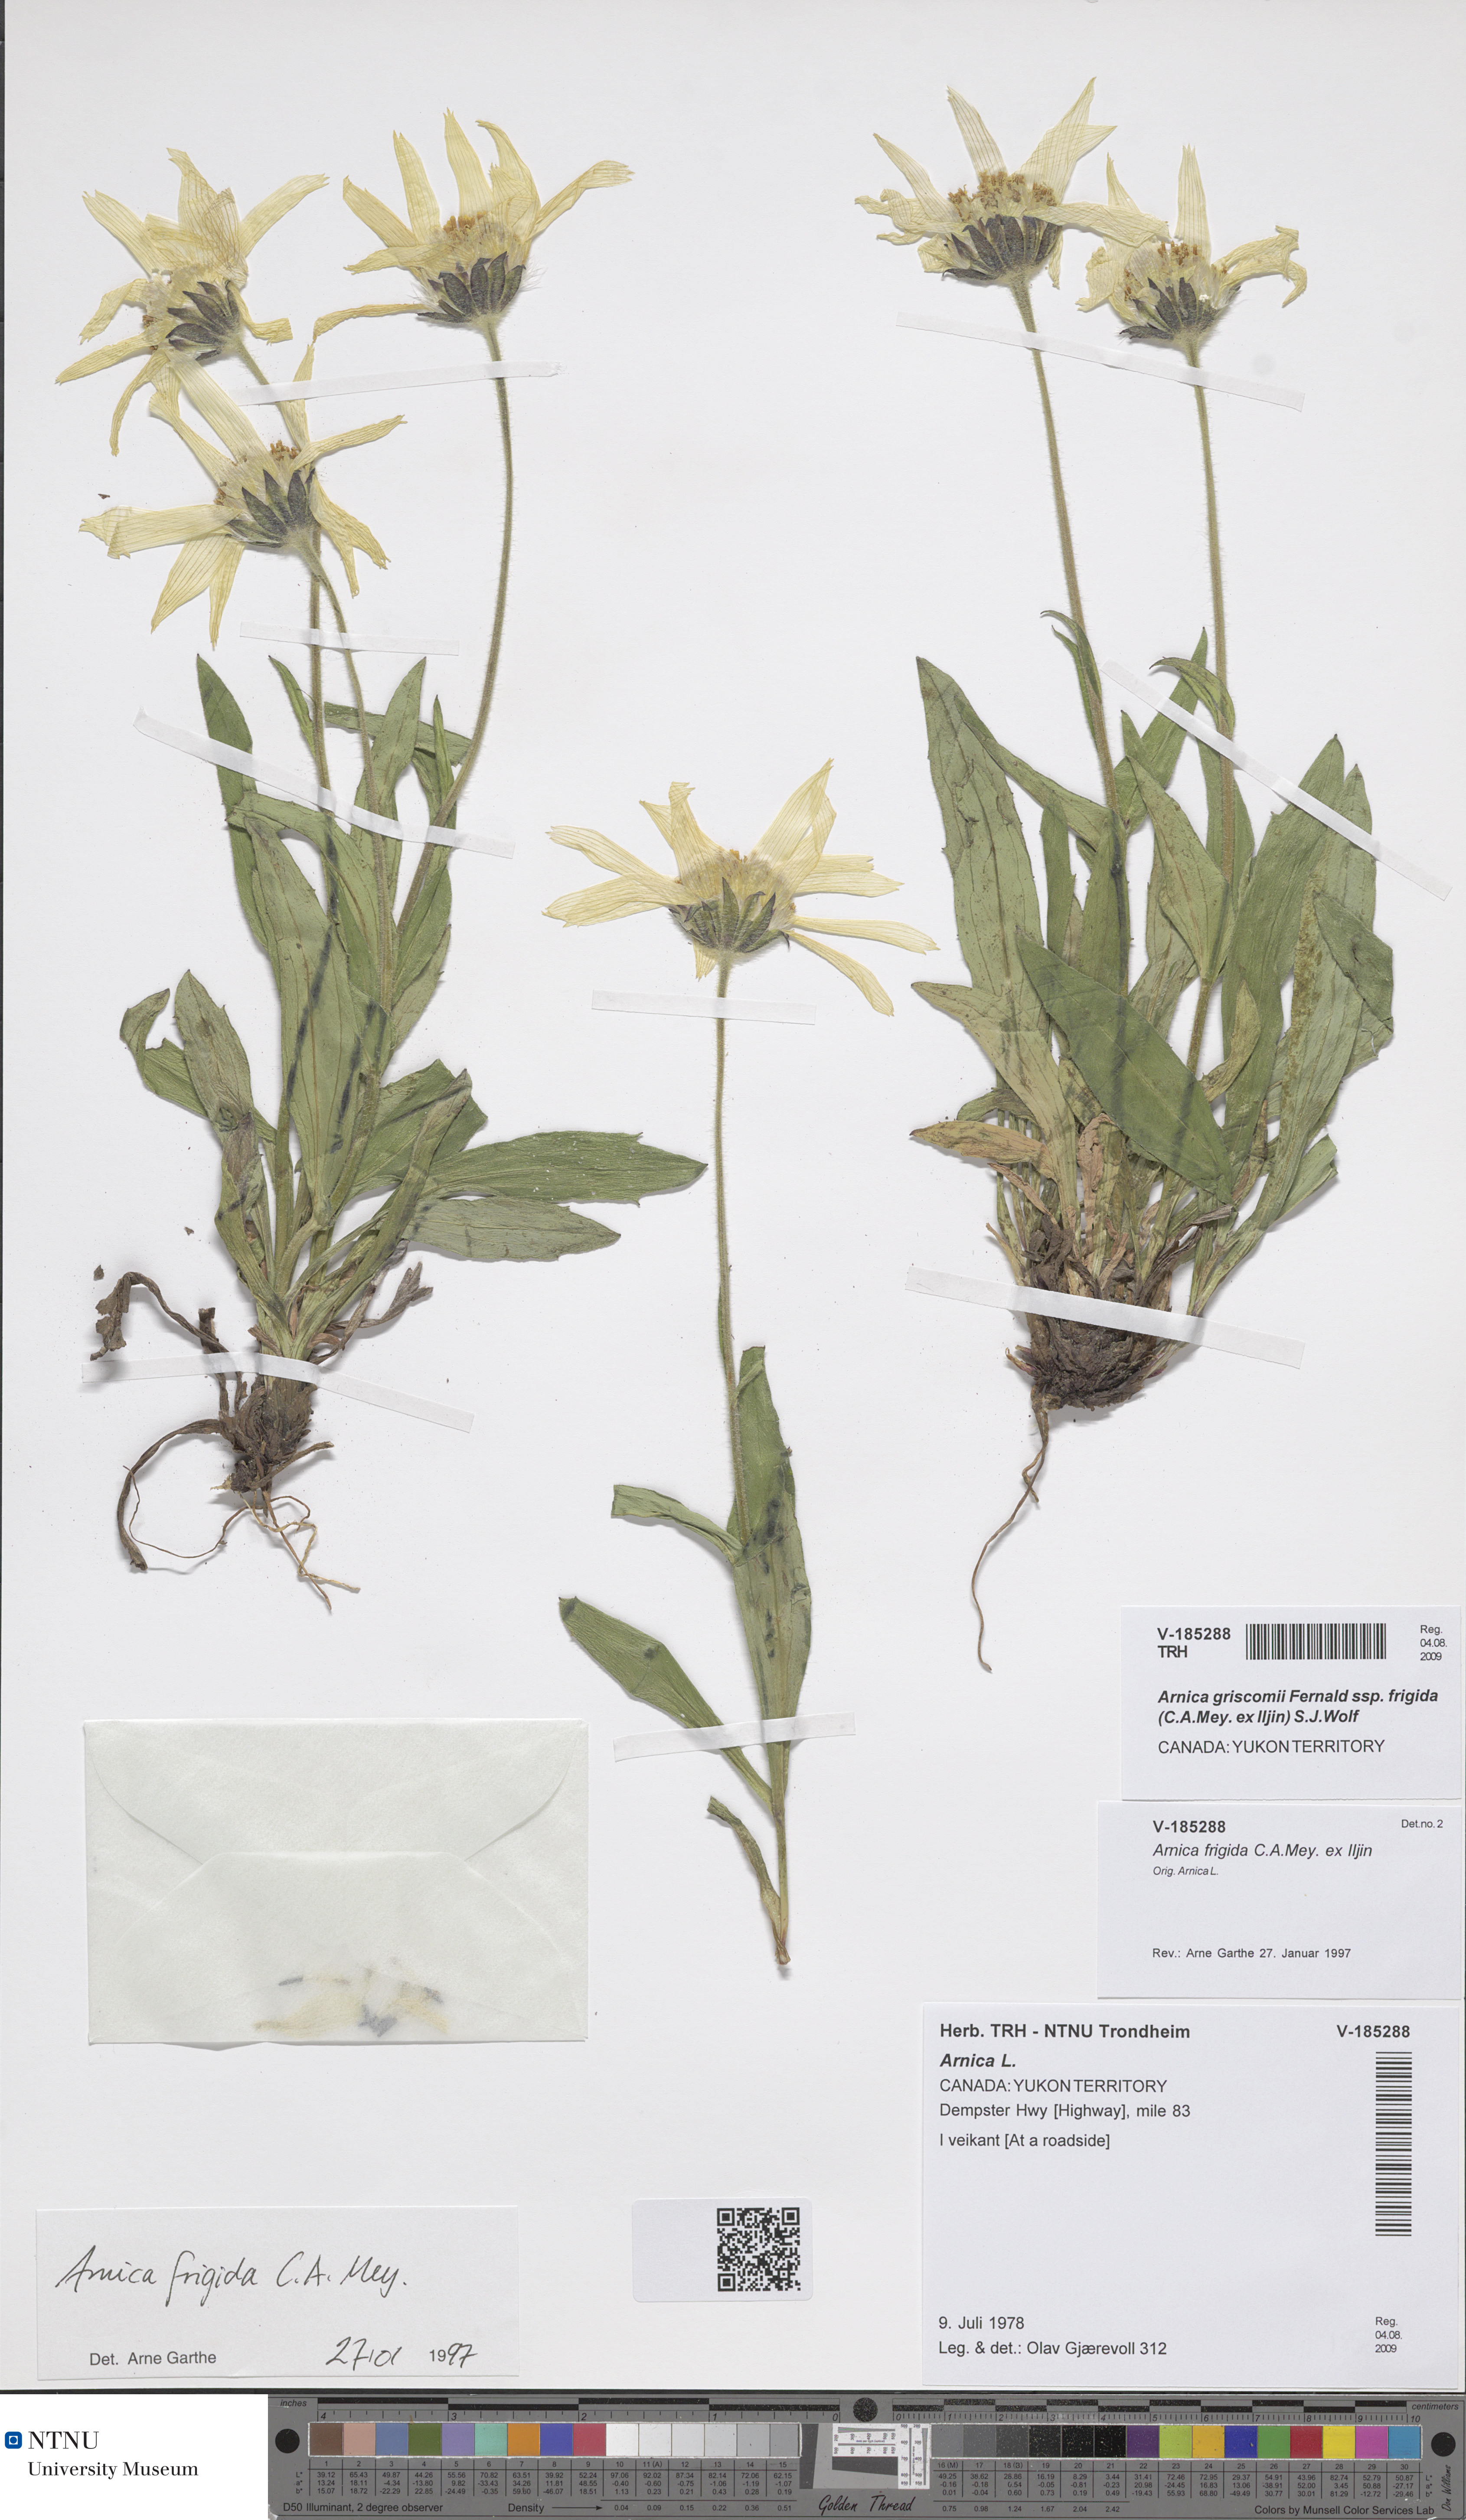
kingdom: Plantae
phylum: Tracheophyta
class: Magnoliopsida
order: Asterales
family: Asteraceae
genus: Arnica
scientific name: Arnica griscomii
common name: Snow arnica
